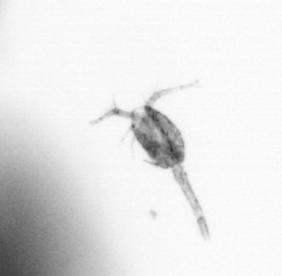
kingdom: Animalia
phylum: Arthropoda
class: Copepoda
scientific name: Copepoda
